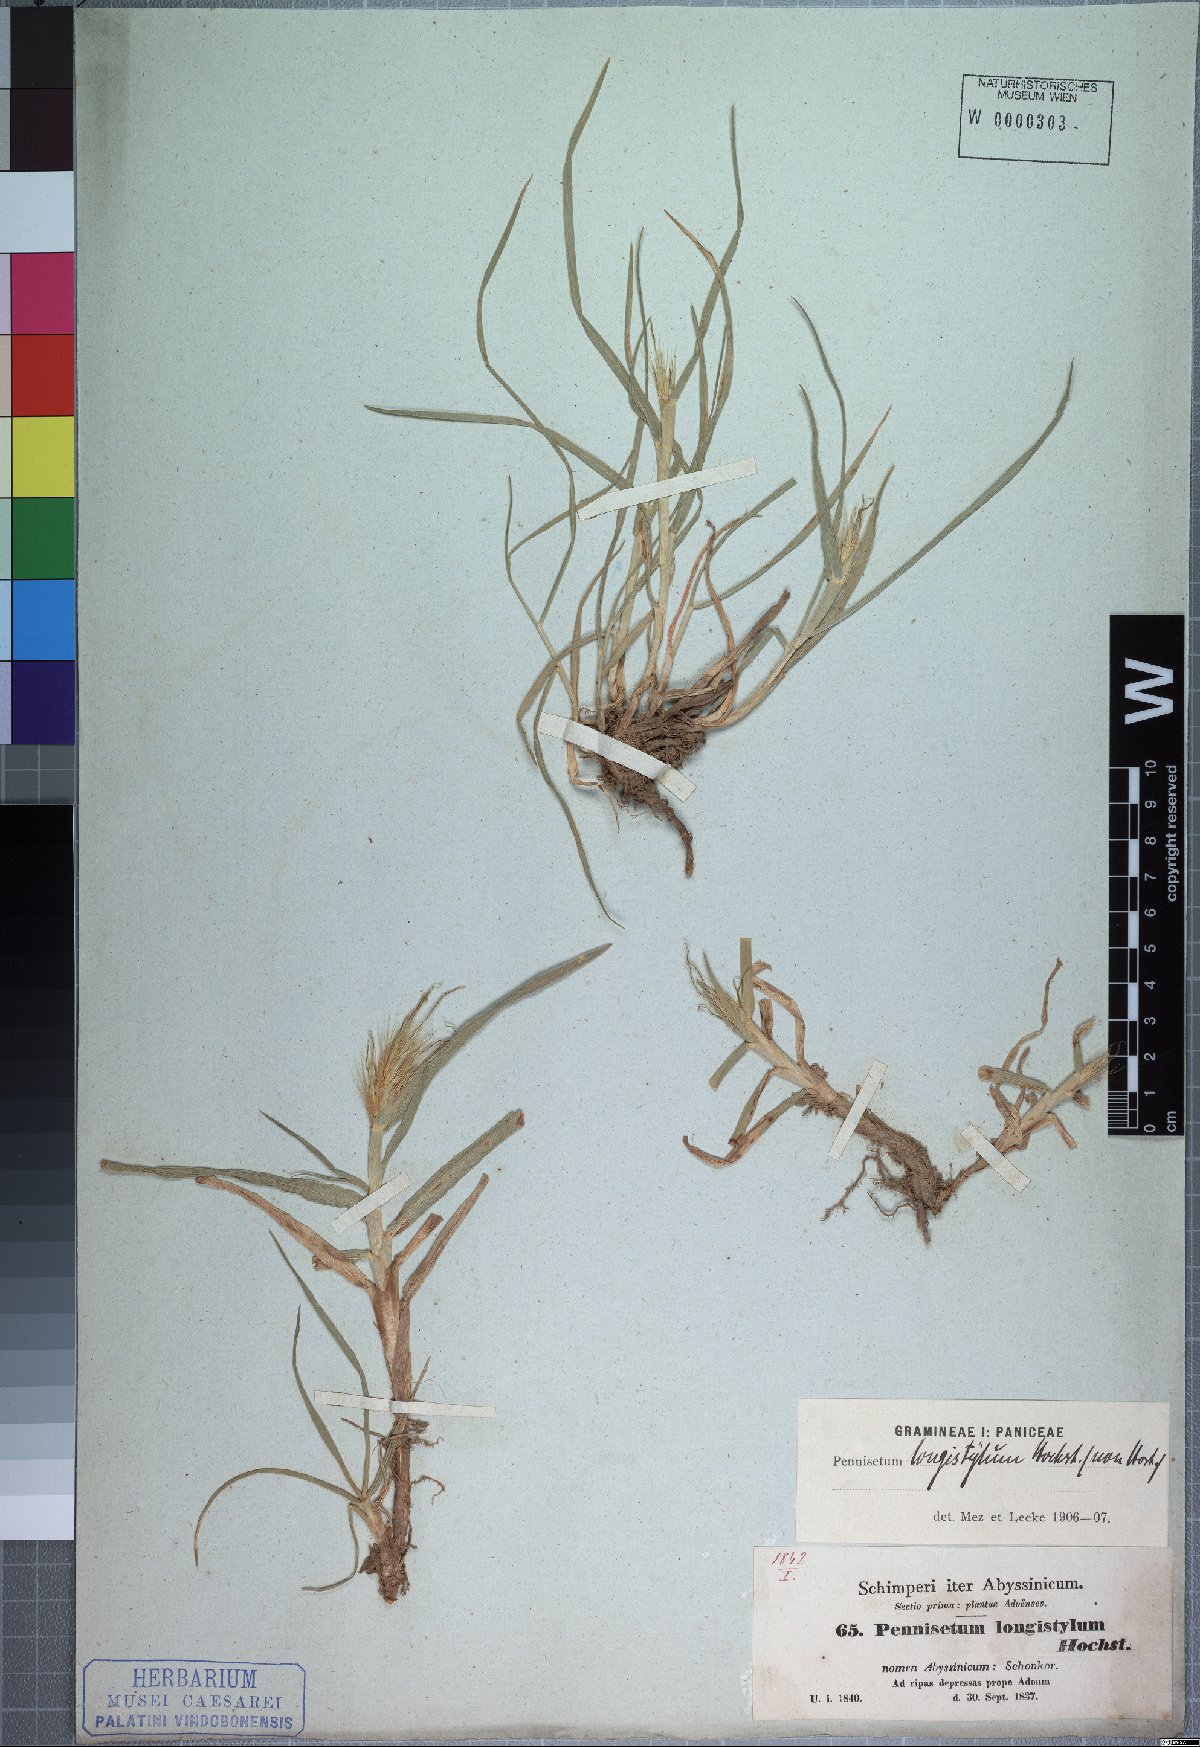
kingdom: Plantae
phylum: Tracheophyta
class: Liliopsida
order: Poales
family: Poaceae
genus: Cenchrus
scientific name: Cenchrus longistylus
